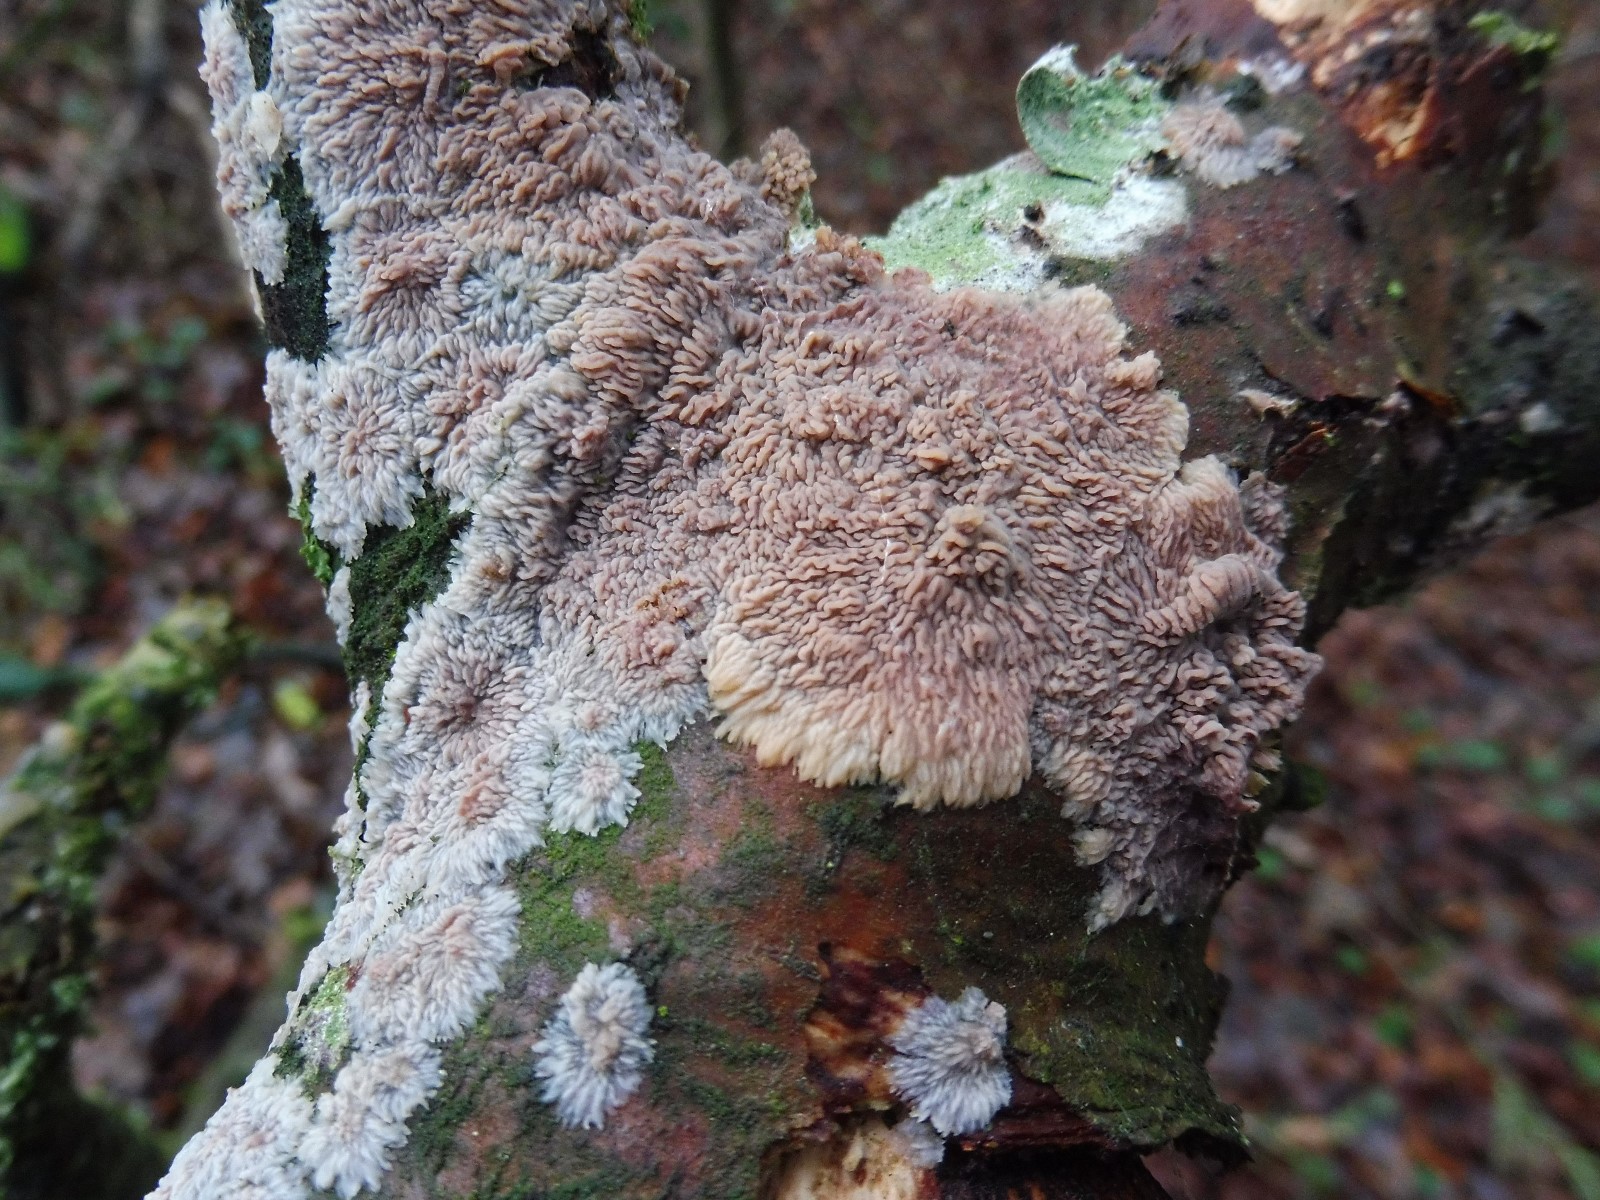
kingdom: Fungi
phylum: Basidiomycota
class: Agaricomycetes
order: Polyporales
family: Meruliaceae
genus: Phlebia
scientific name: Phlebia radiata
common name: stråle-åresvamp
